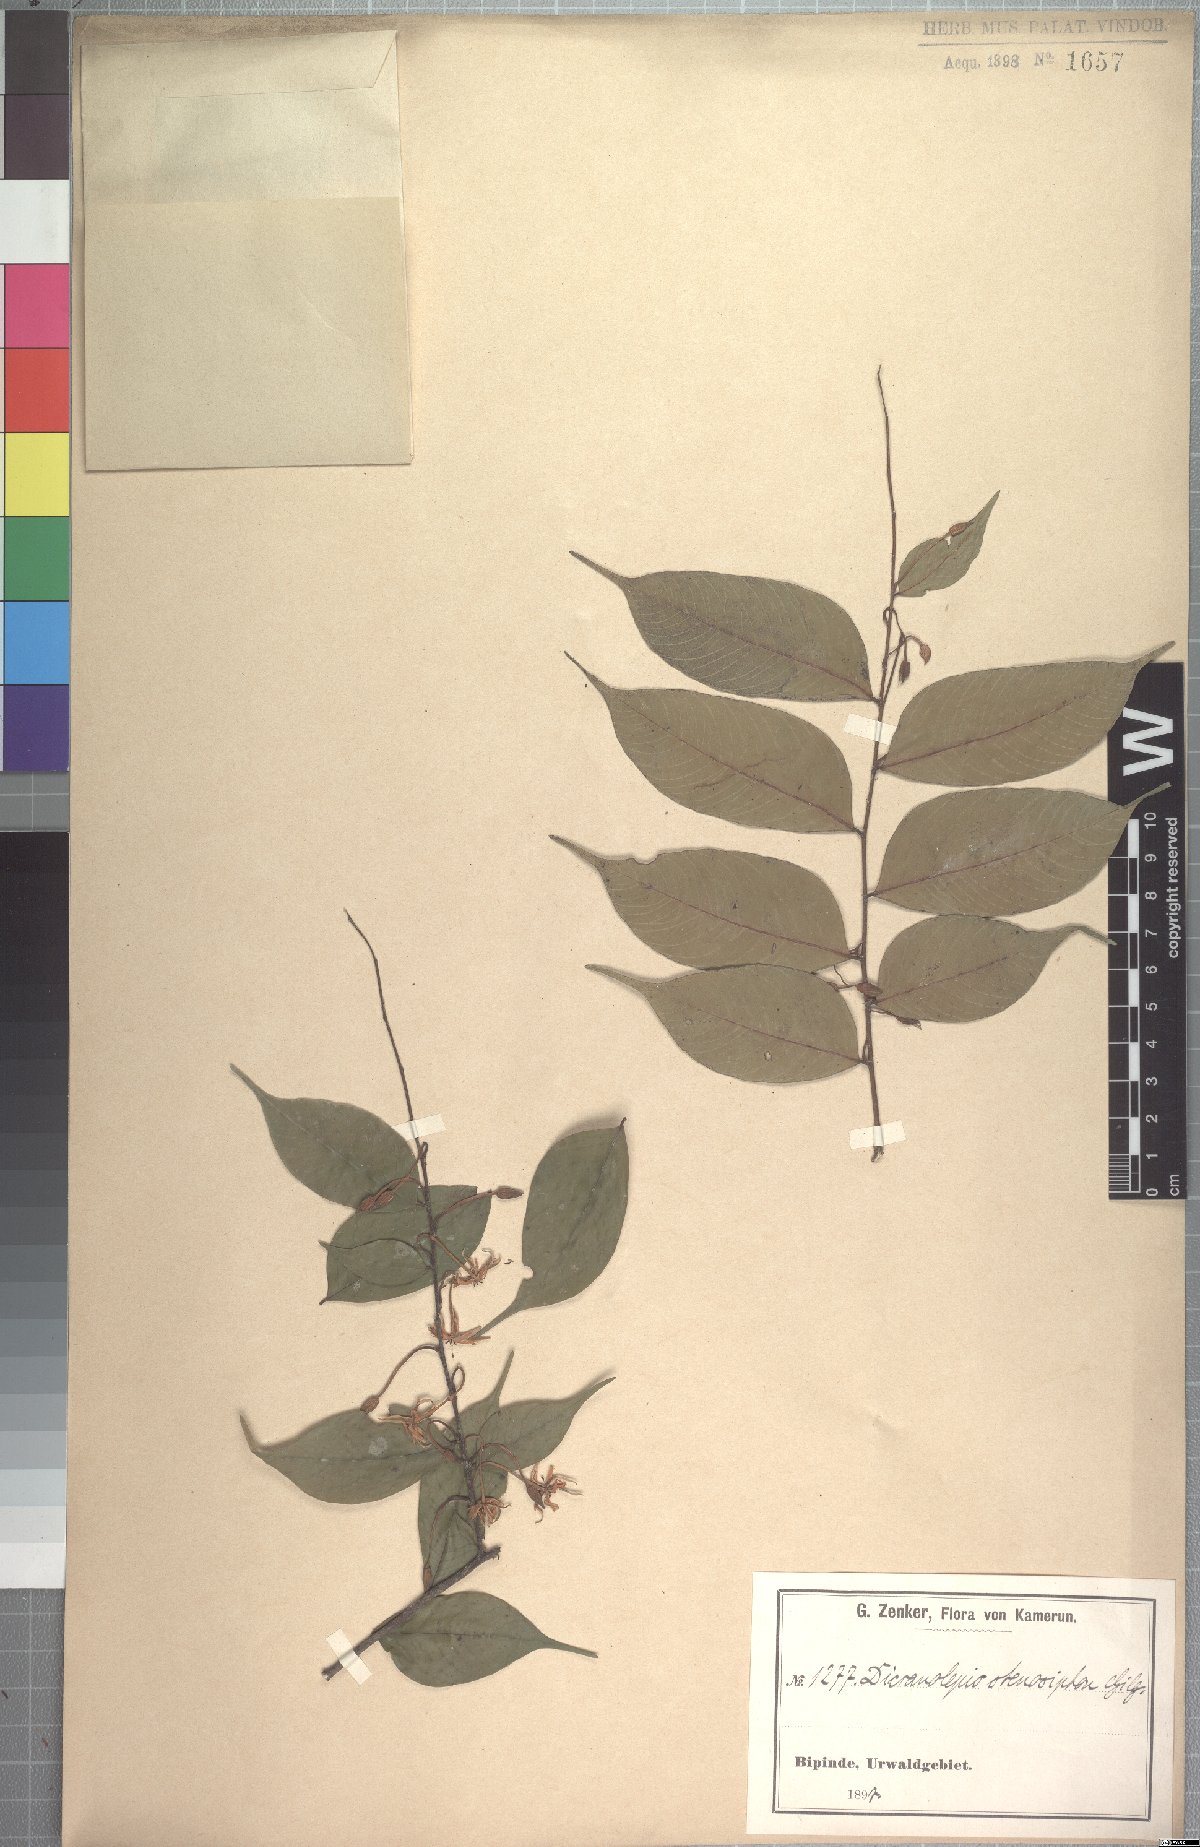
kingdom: Plantae
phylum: Tracheophyta
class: Magnoliopsida
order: Malvales
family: Thymelaeaceae
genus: Dicranolepis
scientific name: Dicranolepis disticha
